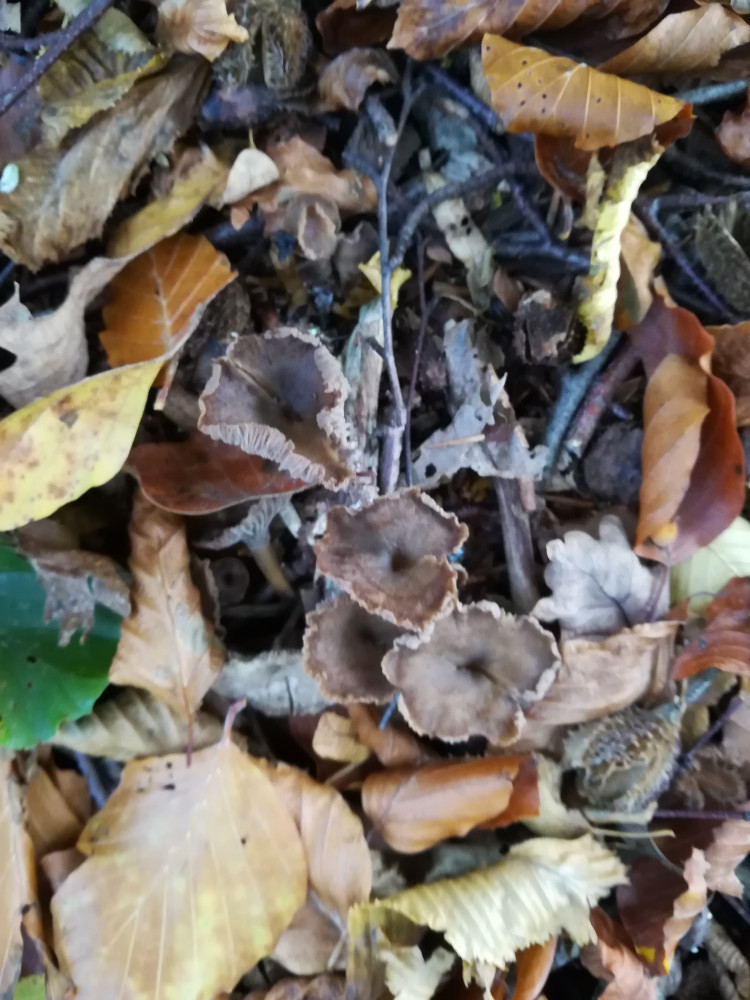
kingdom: Fungi
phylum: Basidiomycota
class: Agaricomycetes
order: Cantharellales
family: Hydnaceae
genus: Craterellus
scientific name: Craterellus tubaeformis
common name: tragt-kantarel
